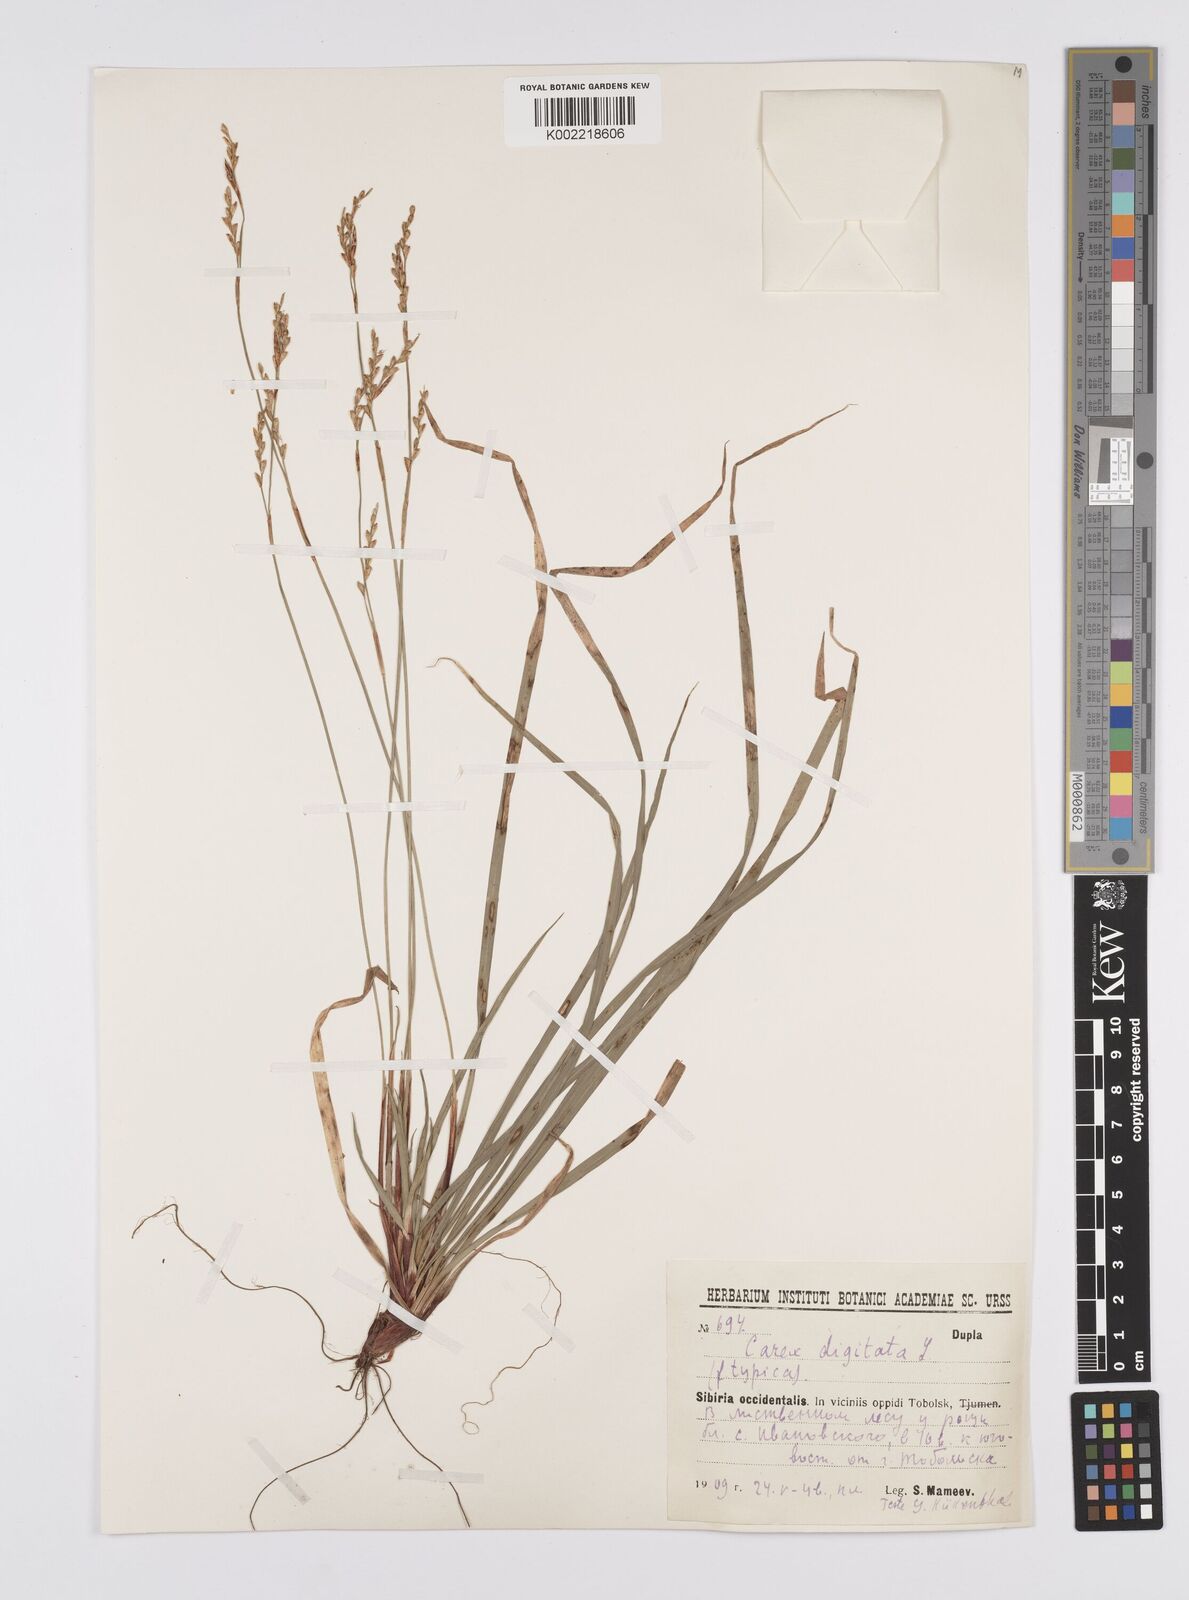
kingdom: Plantae
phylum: Tracheophyta
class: Liliopsida
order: Poales
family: Cyperaceae
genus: Carex
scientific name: Carex digitata
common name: Fingered sedge
